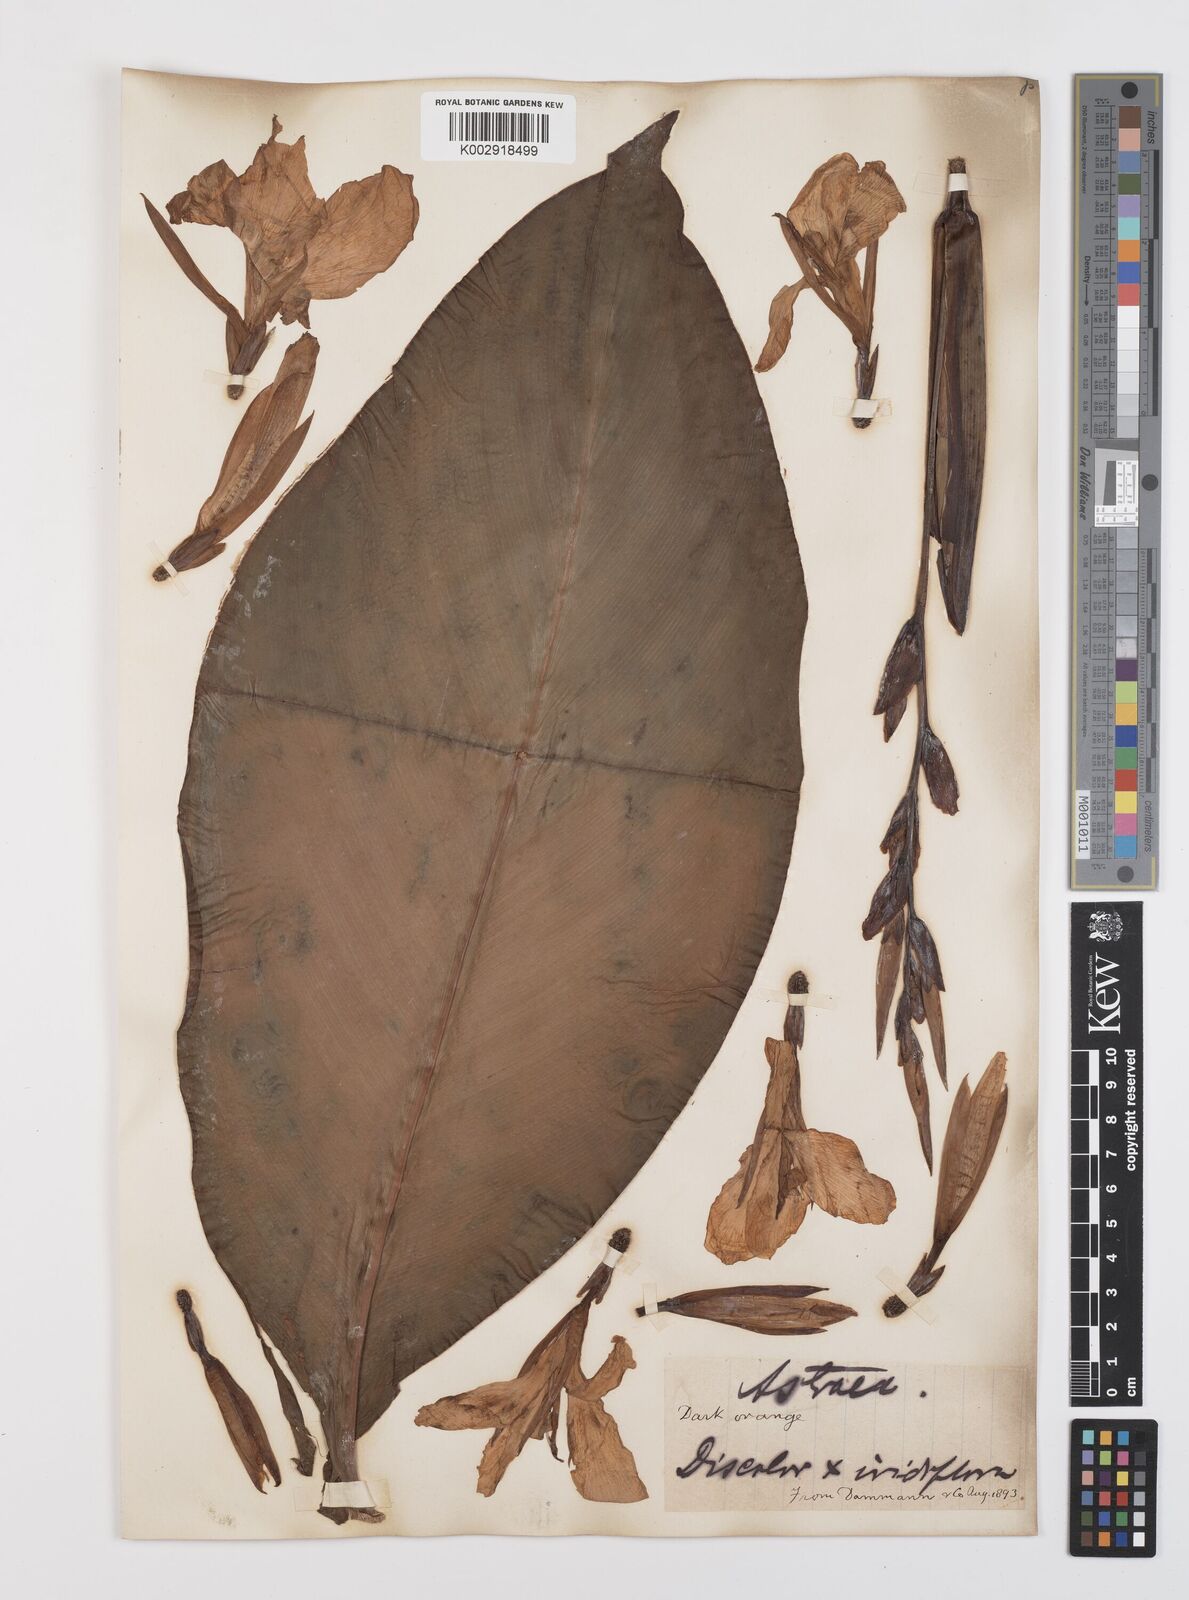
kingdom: Plantae
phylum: Tracheophyta
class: Liliopsida
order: Zingiberales
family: Cannaceae
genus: Canna
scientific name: Canna tuerckheimii
